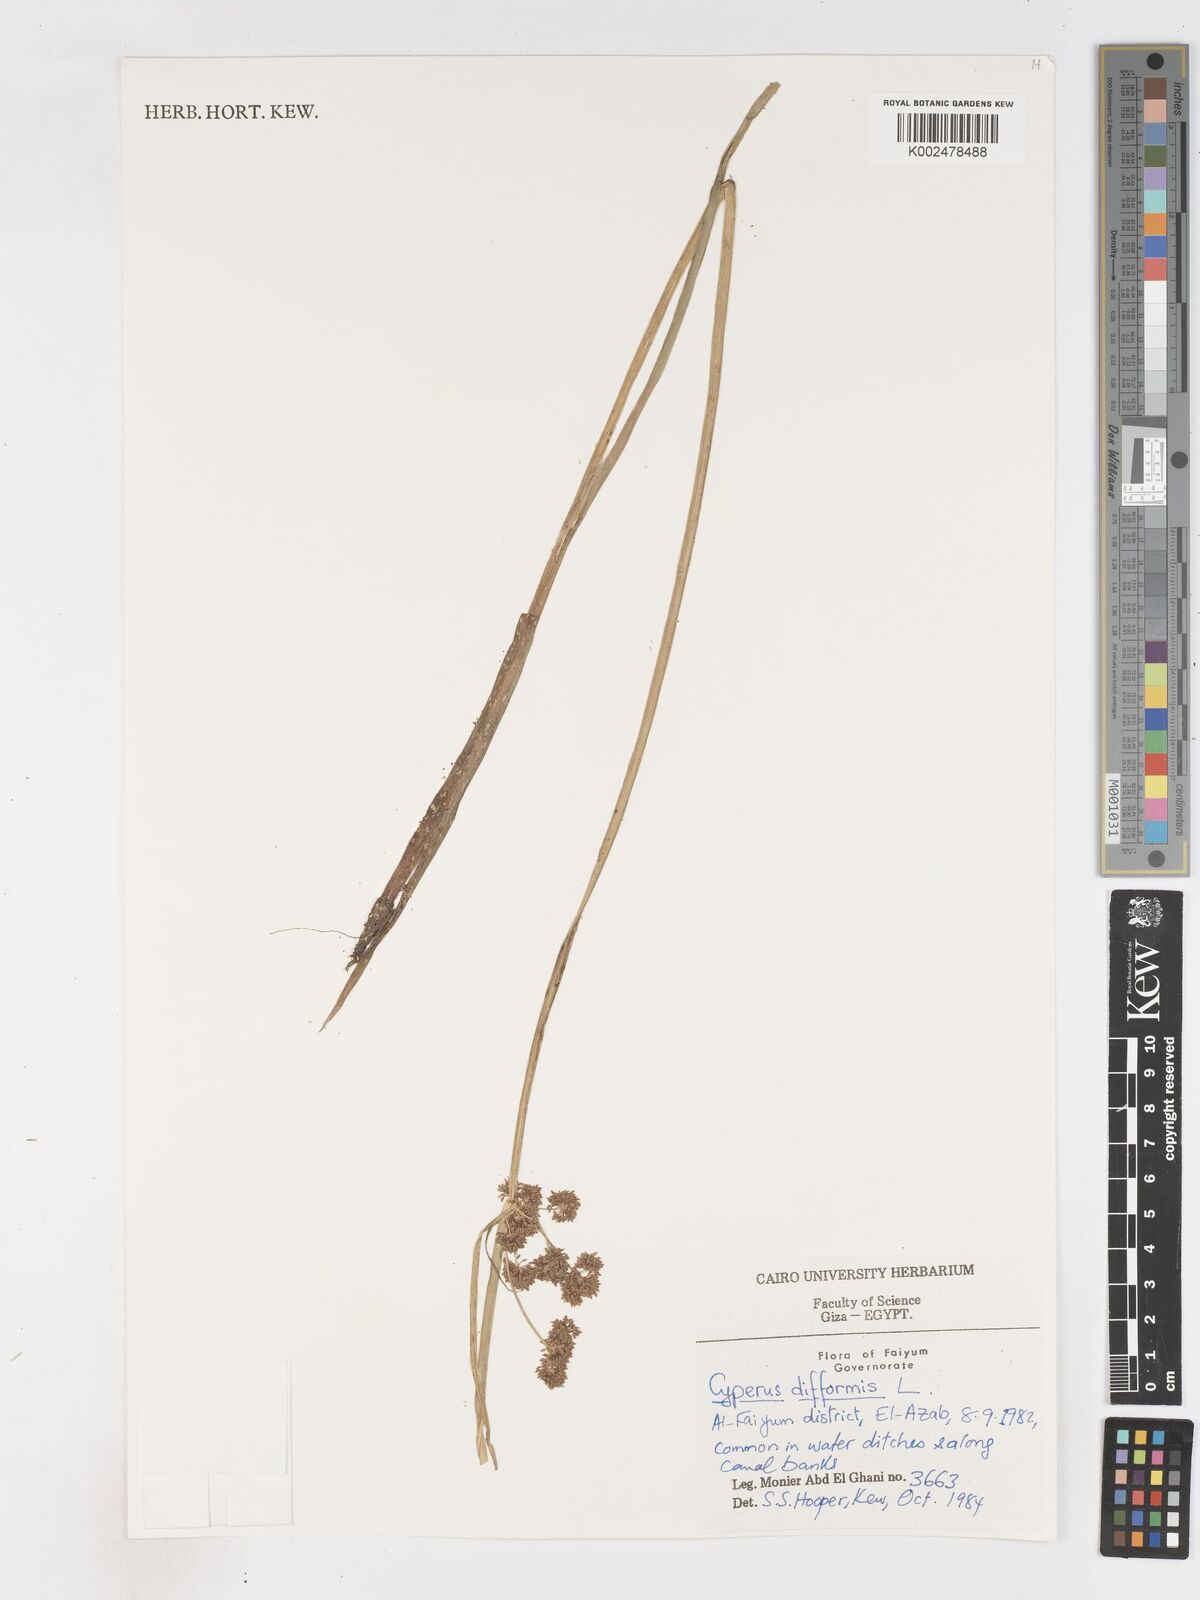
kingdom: Plantae
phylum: Tracheophyta
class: Liliopsida
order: Poales
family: Cyperaceae
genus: Cyperus
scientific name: Cyperus difformis
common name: Variable flatsedge
